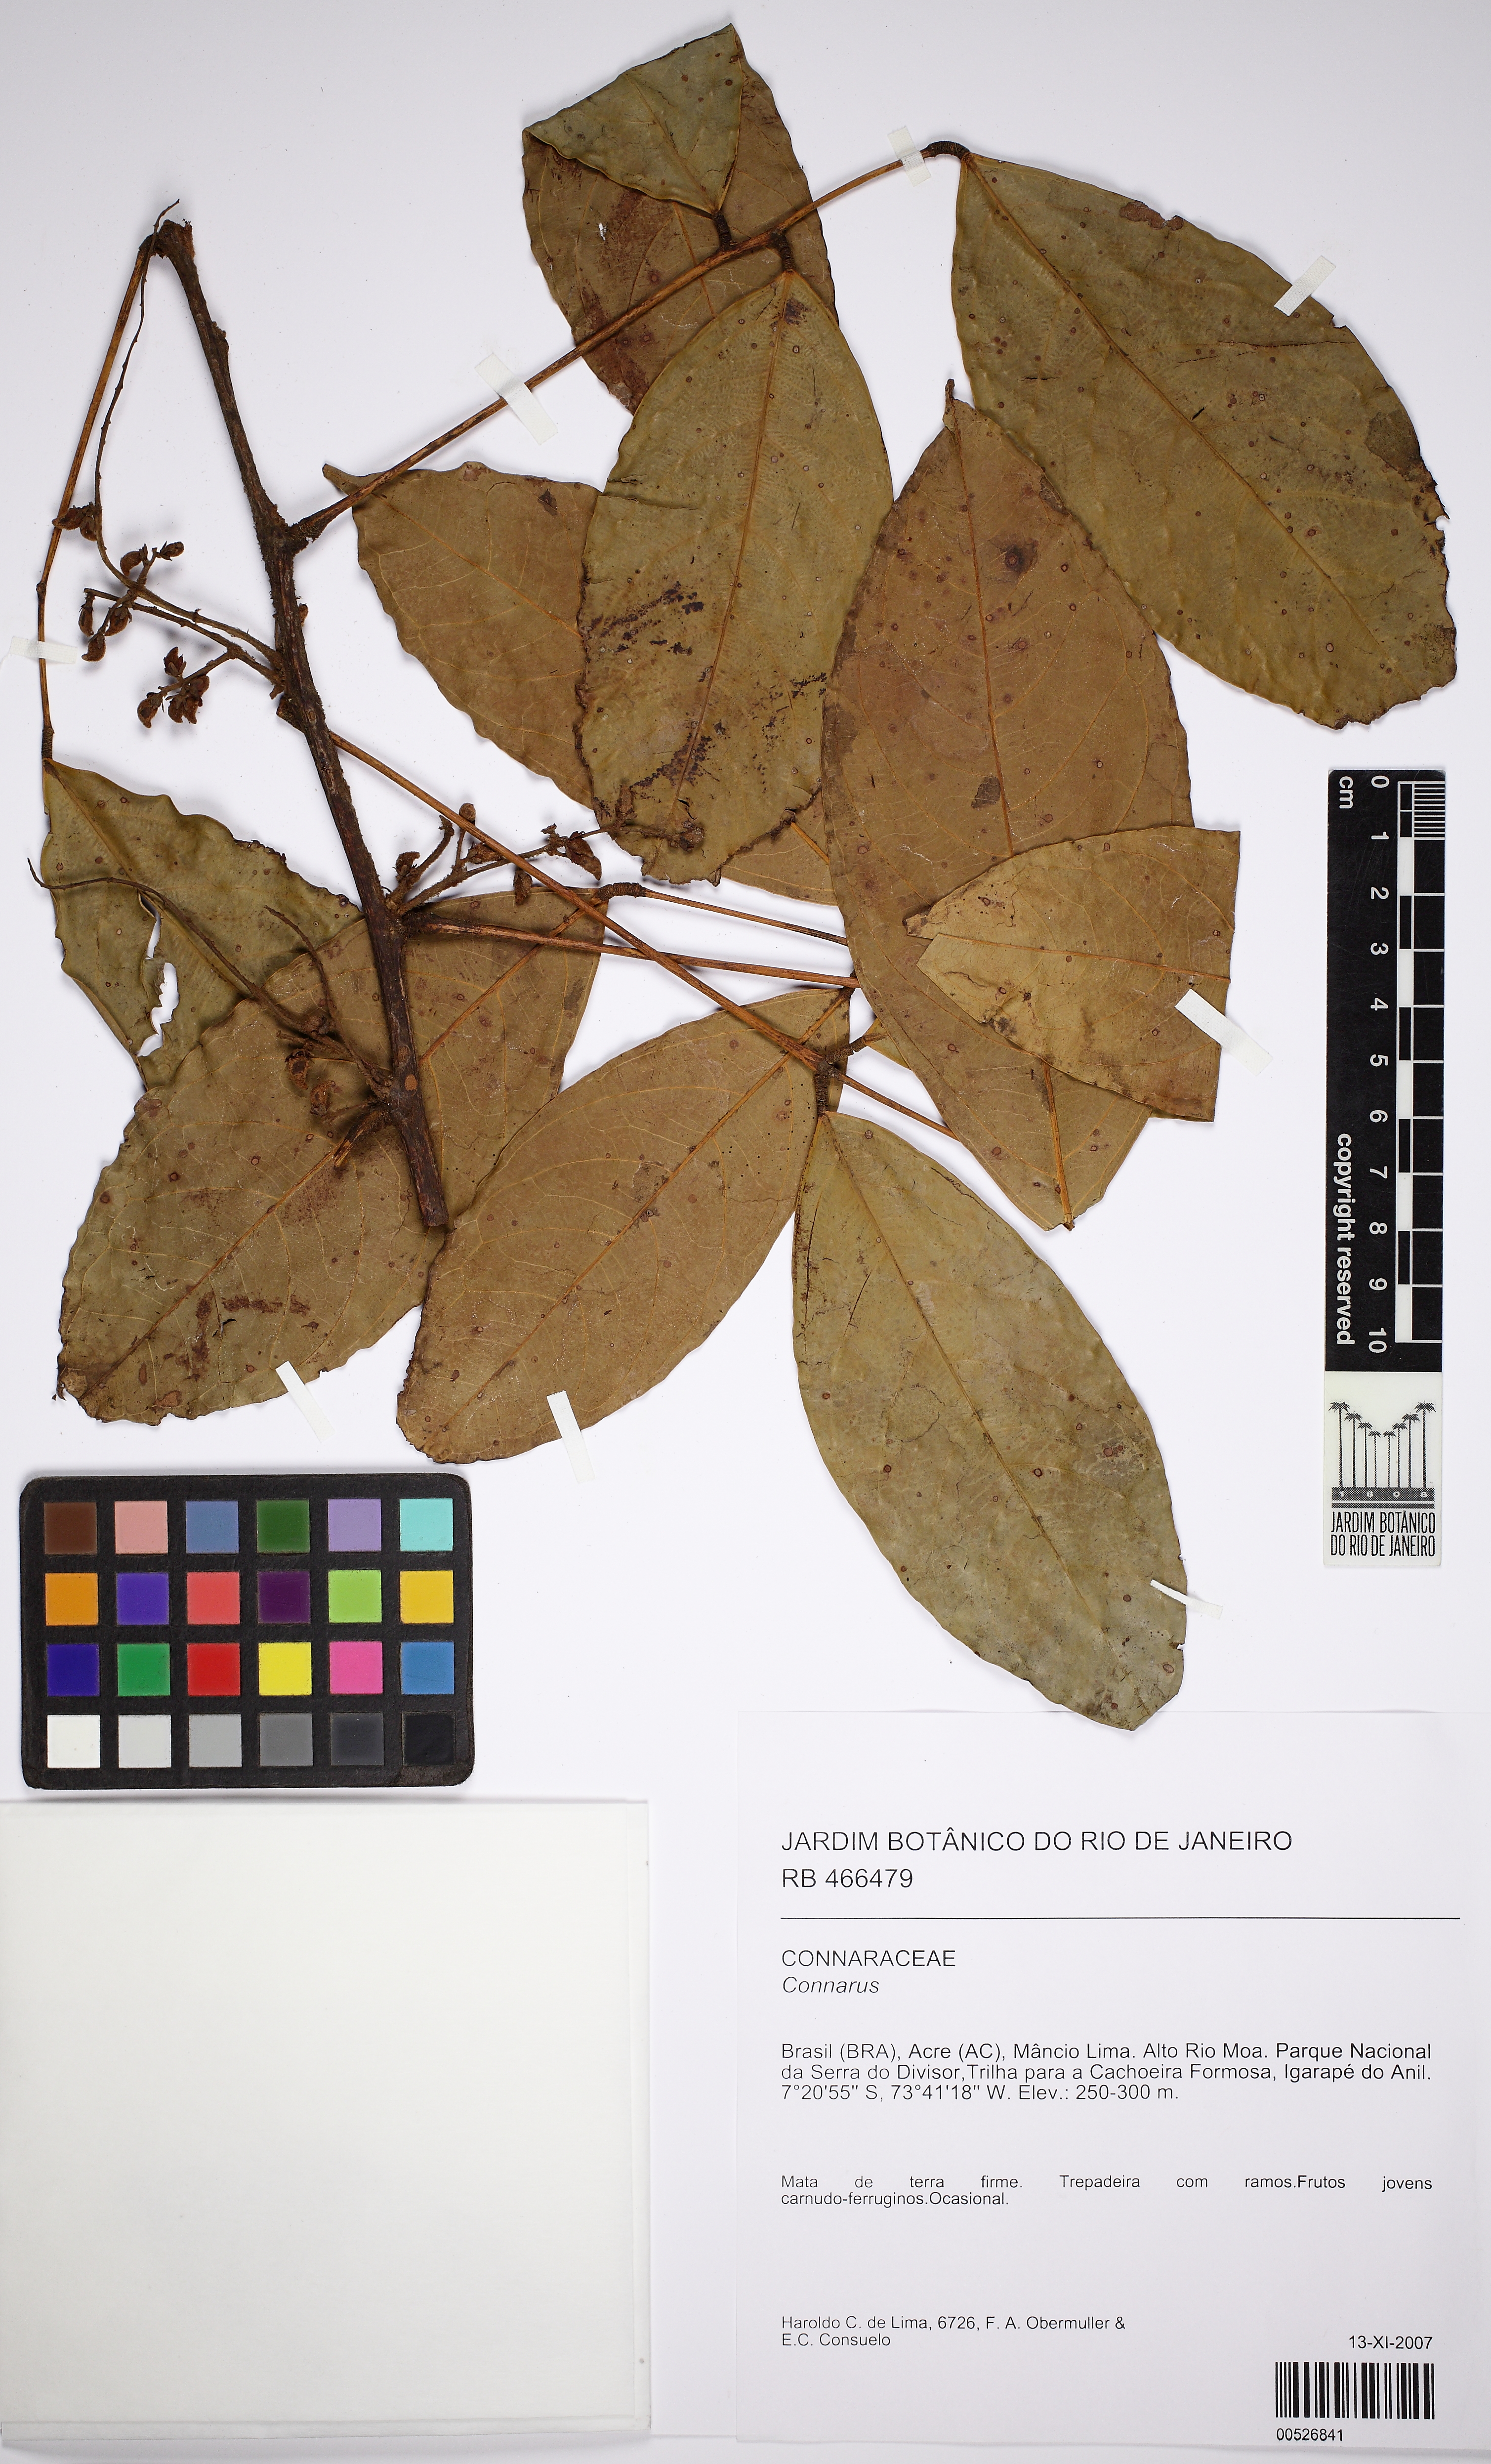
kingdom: Plantae
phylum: Tracheophyta
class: Magnoliopsida
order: Oxalidales
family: Connaraceae
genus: Rourea
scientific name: Rourea
